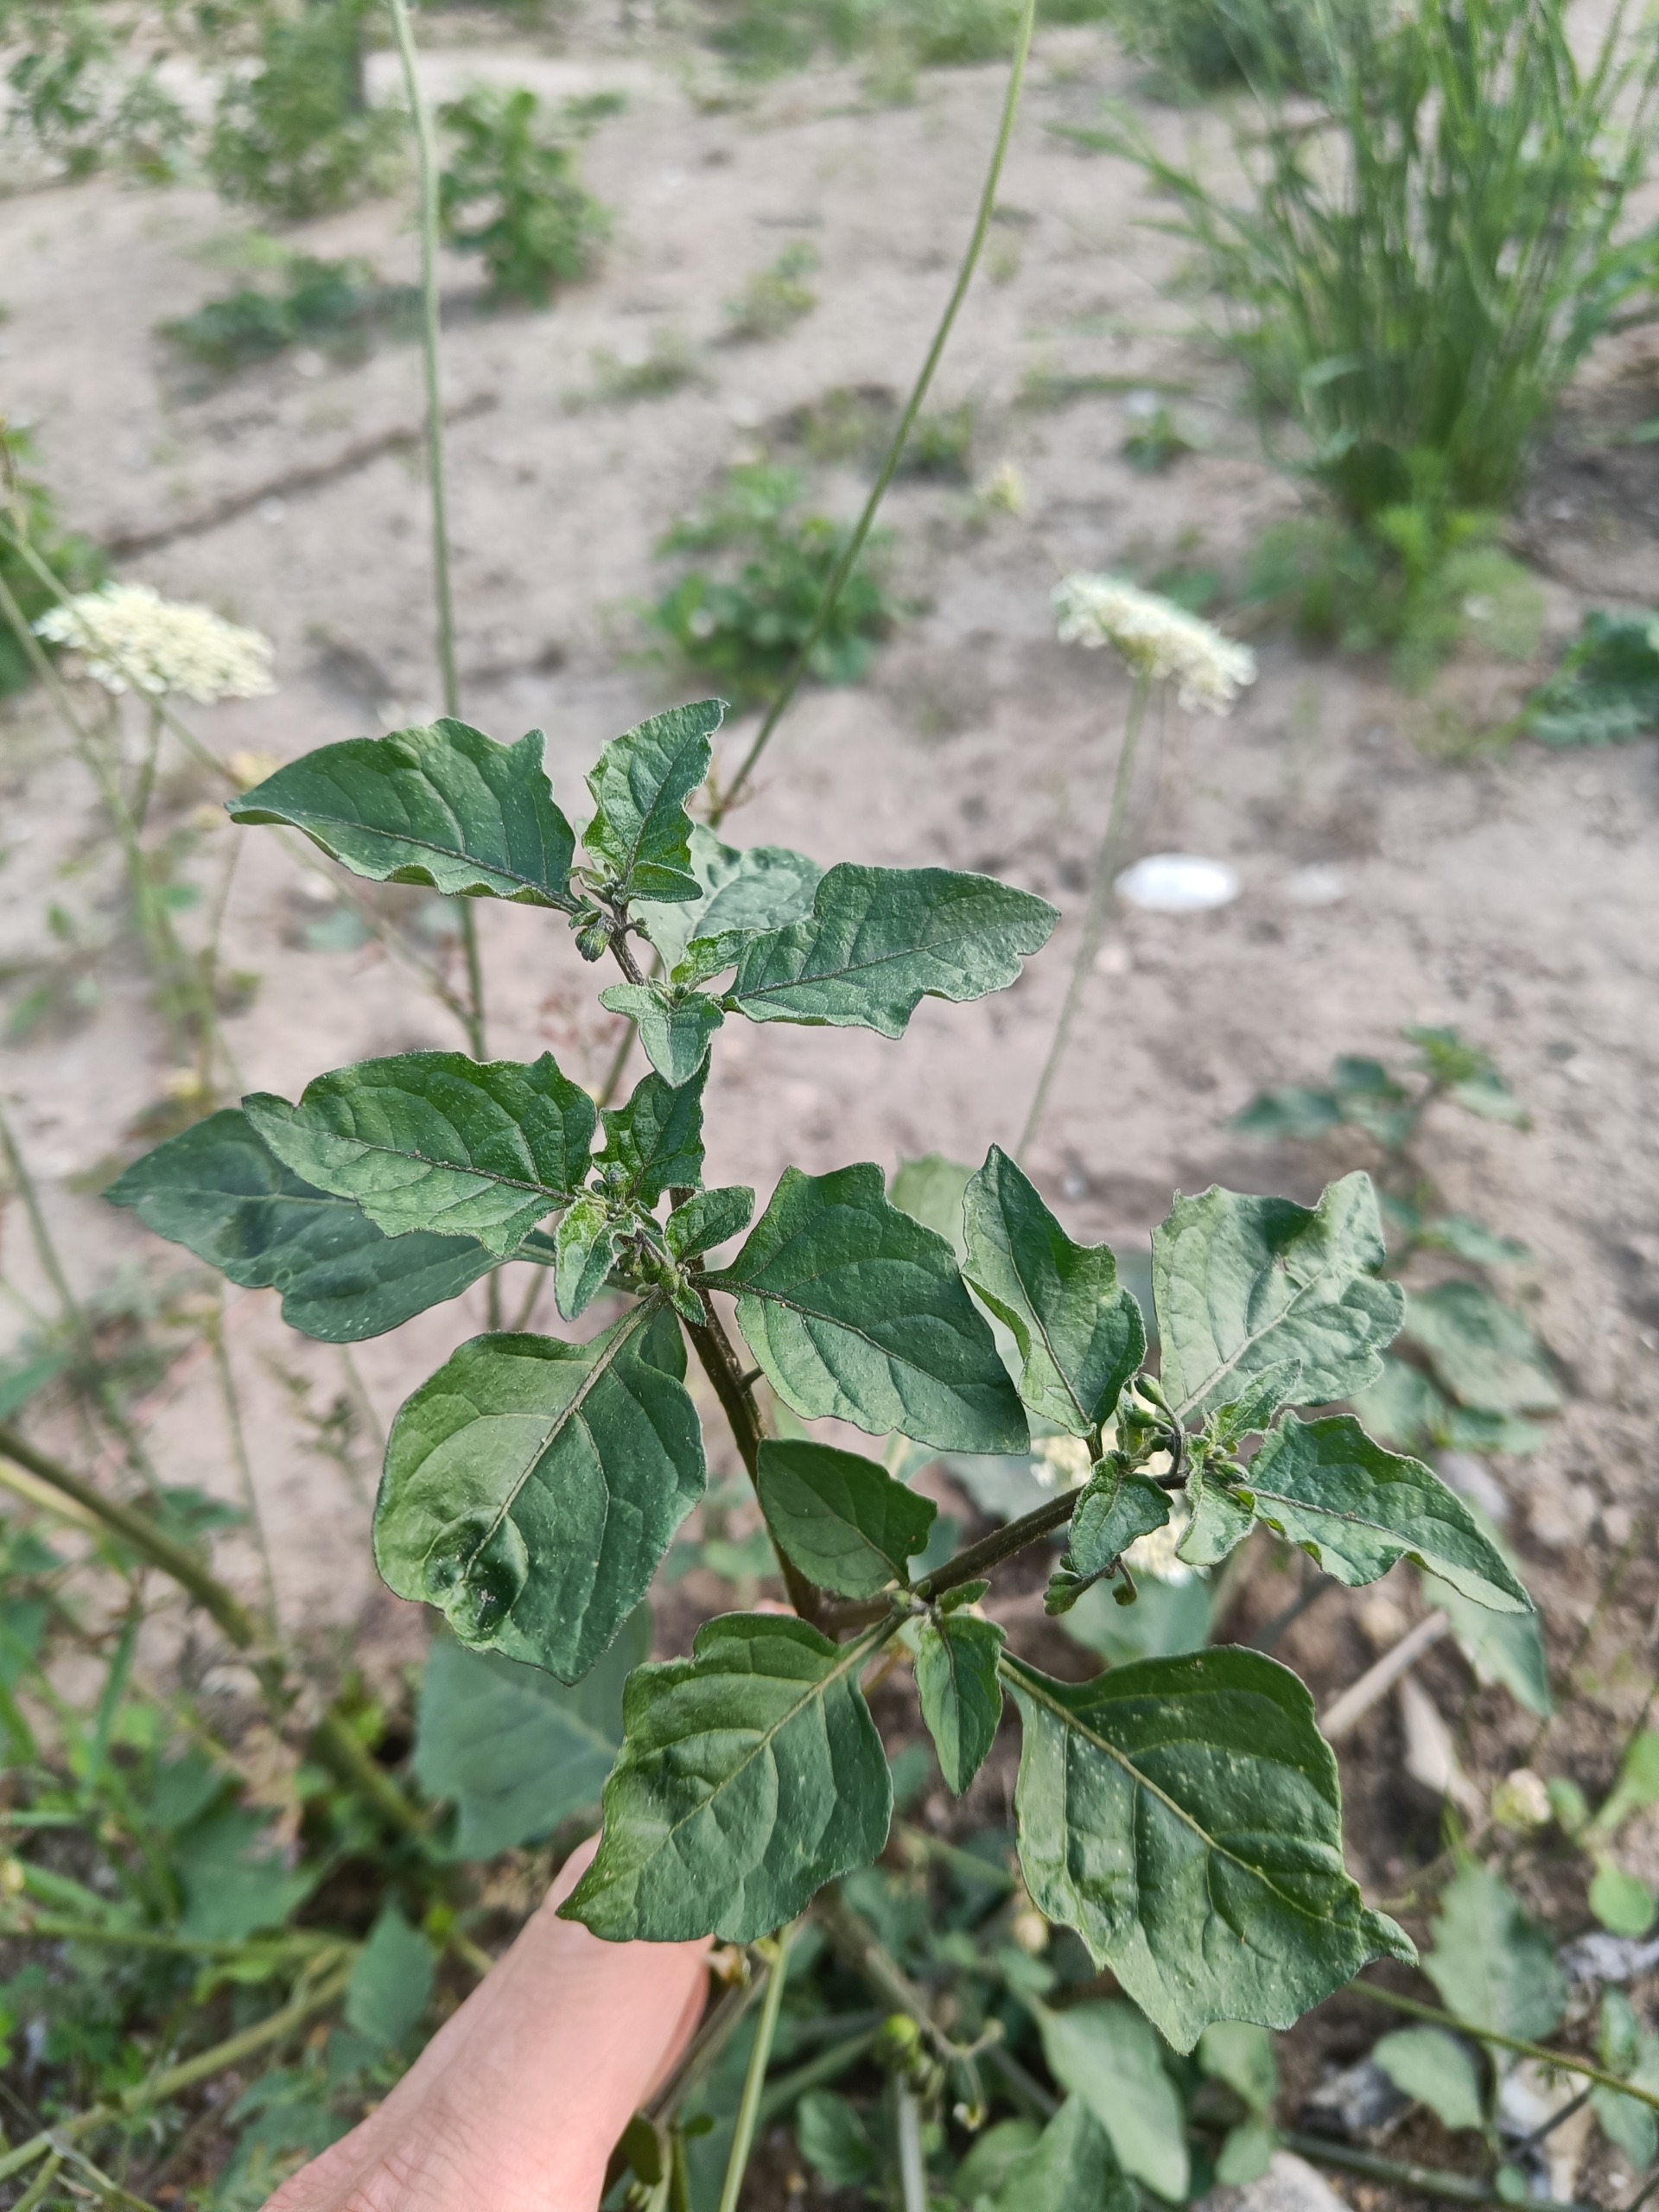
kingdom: Plantae
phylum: Tracheophyta
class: Magnoliopsida
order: Solanales
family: Solanaceae
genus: Solanum
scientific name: Solanum nigrum
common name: Sort natskygge
